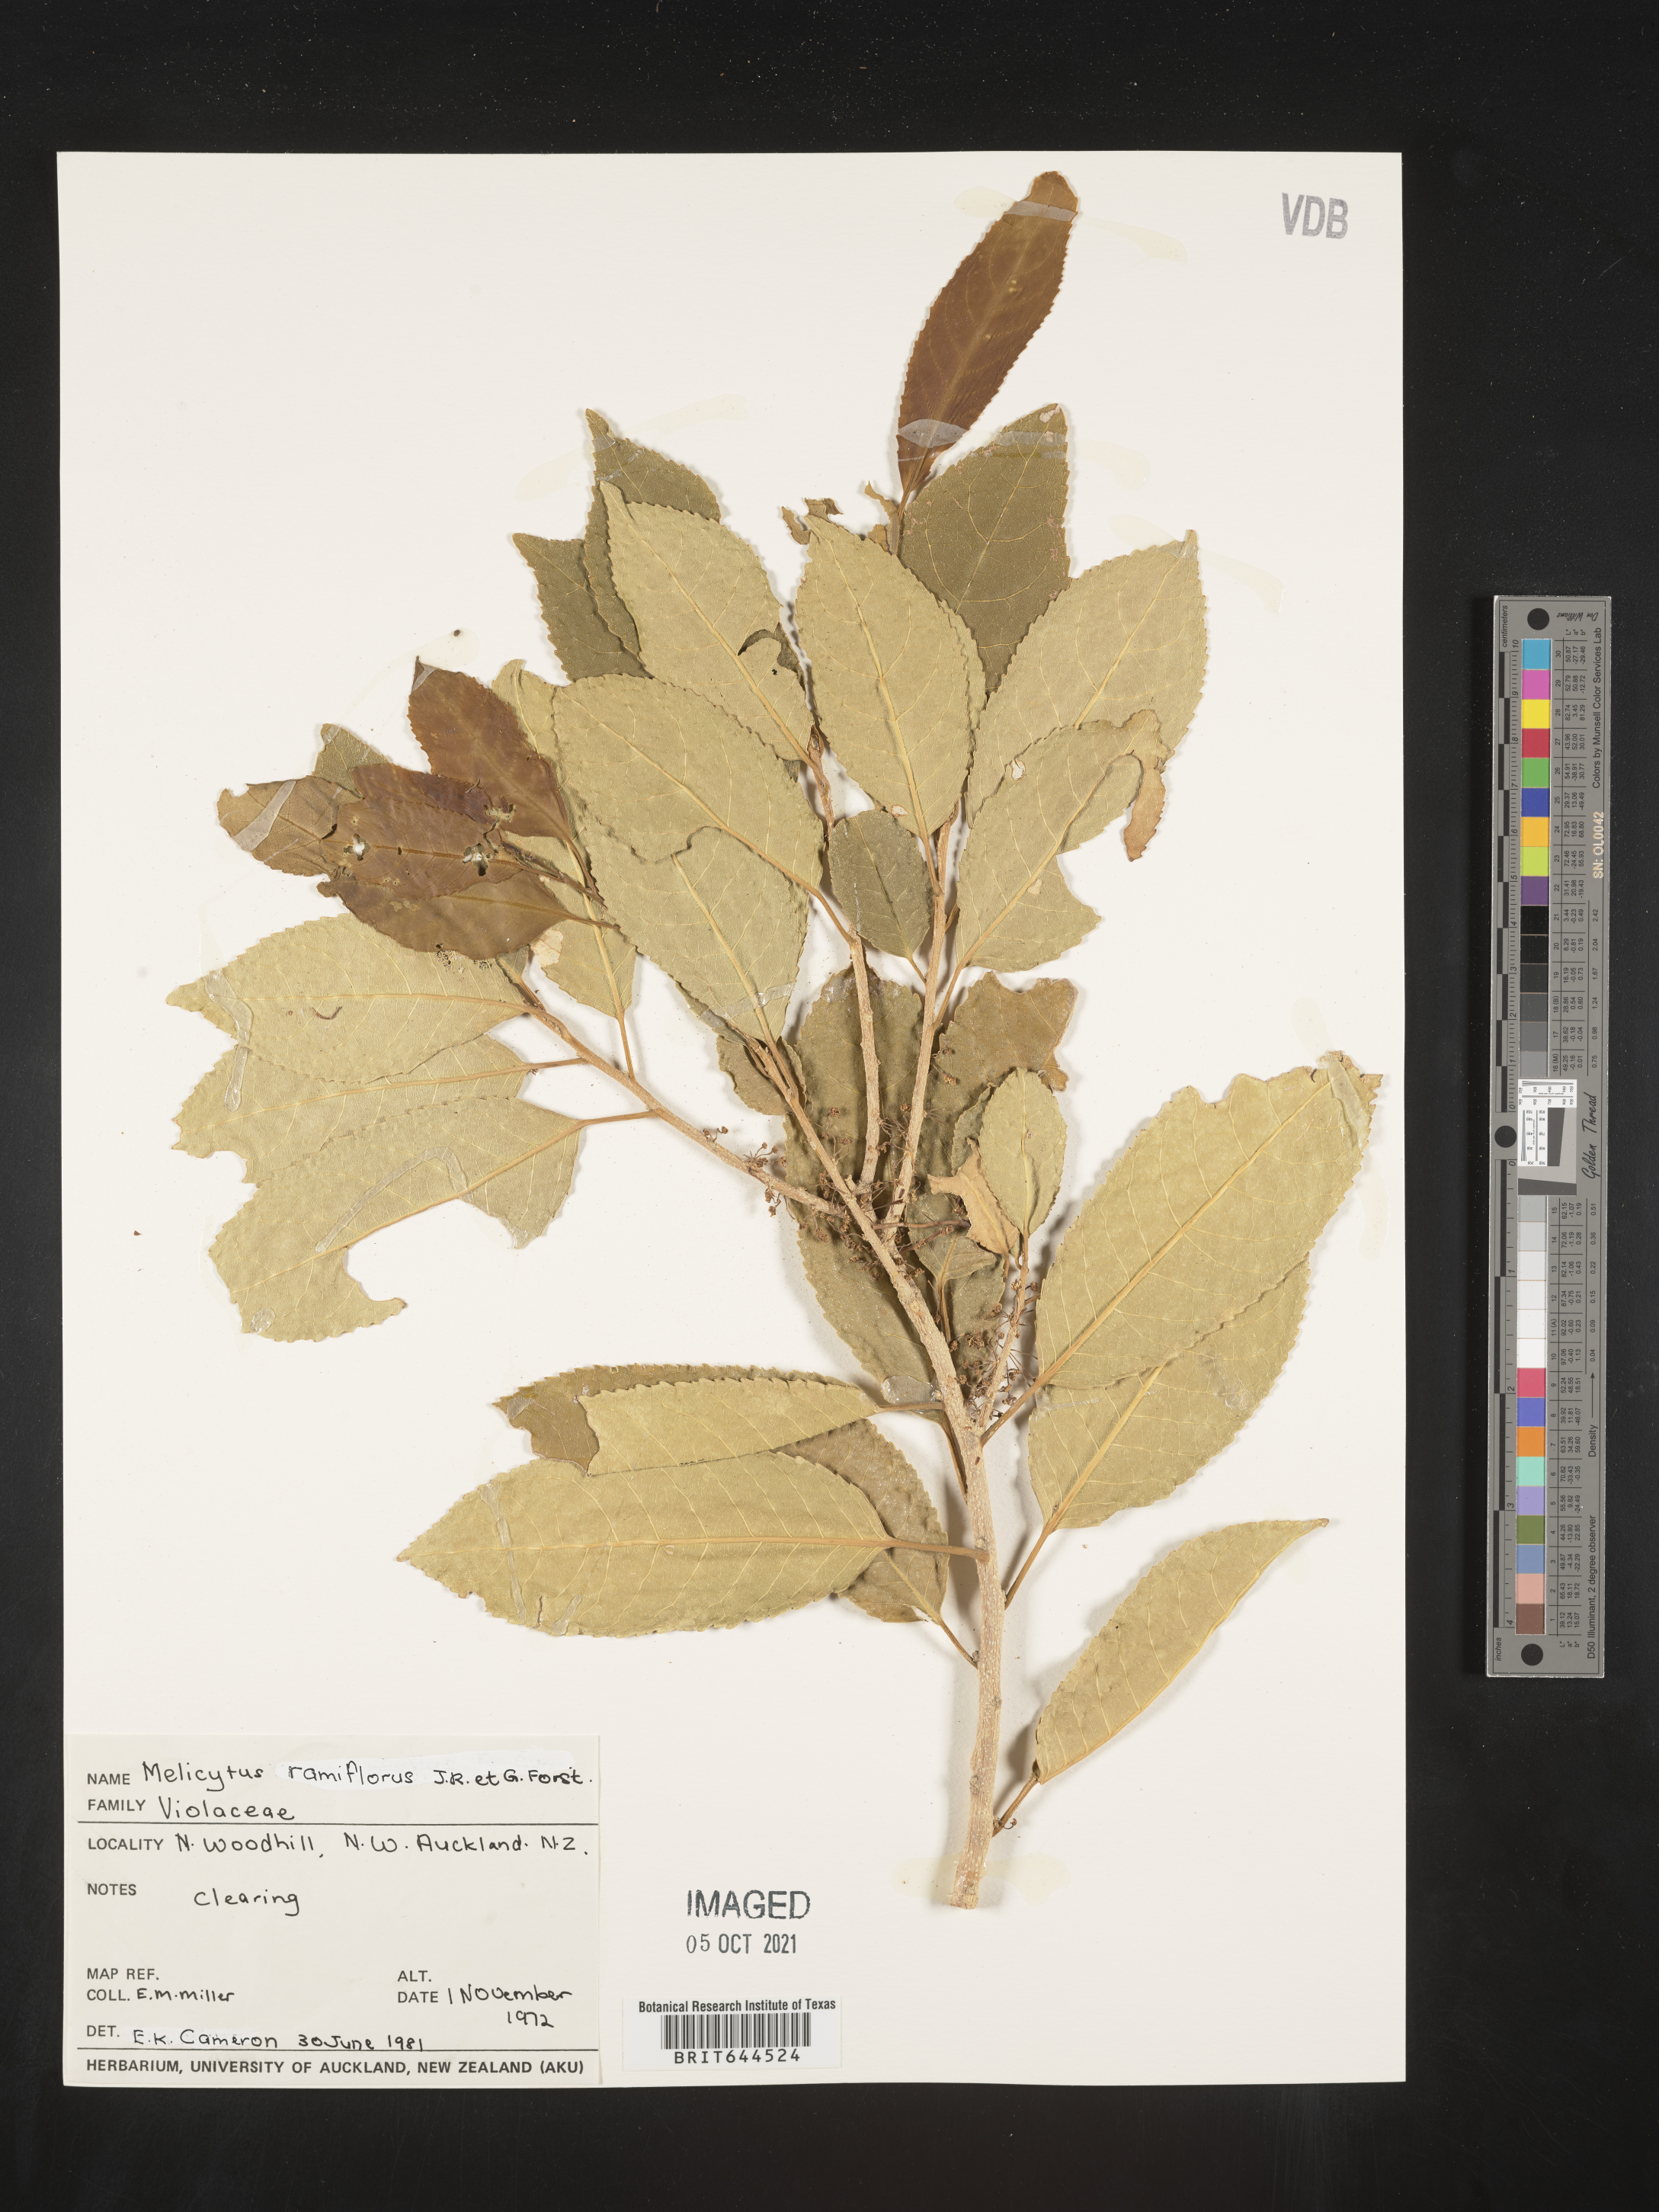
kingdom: Plantae
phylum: Tracheophyta
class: Magnoliopsida
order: Malpighiales
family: Violaceae
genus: Melicytus
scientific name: Melicytus
